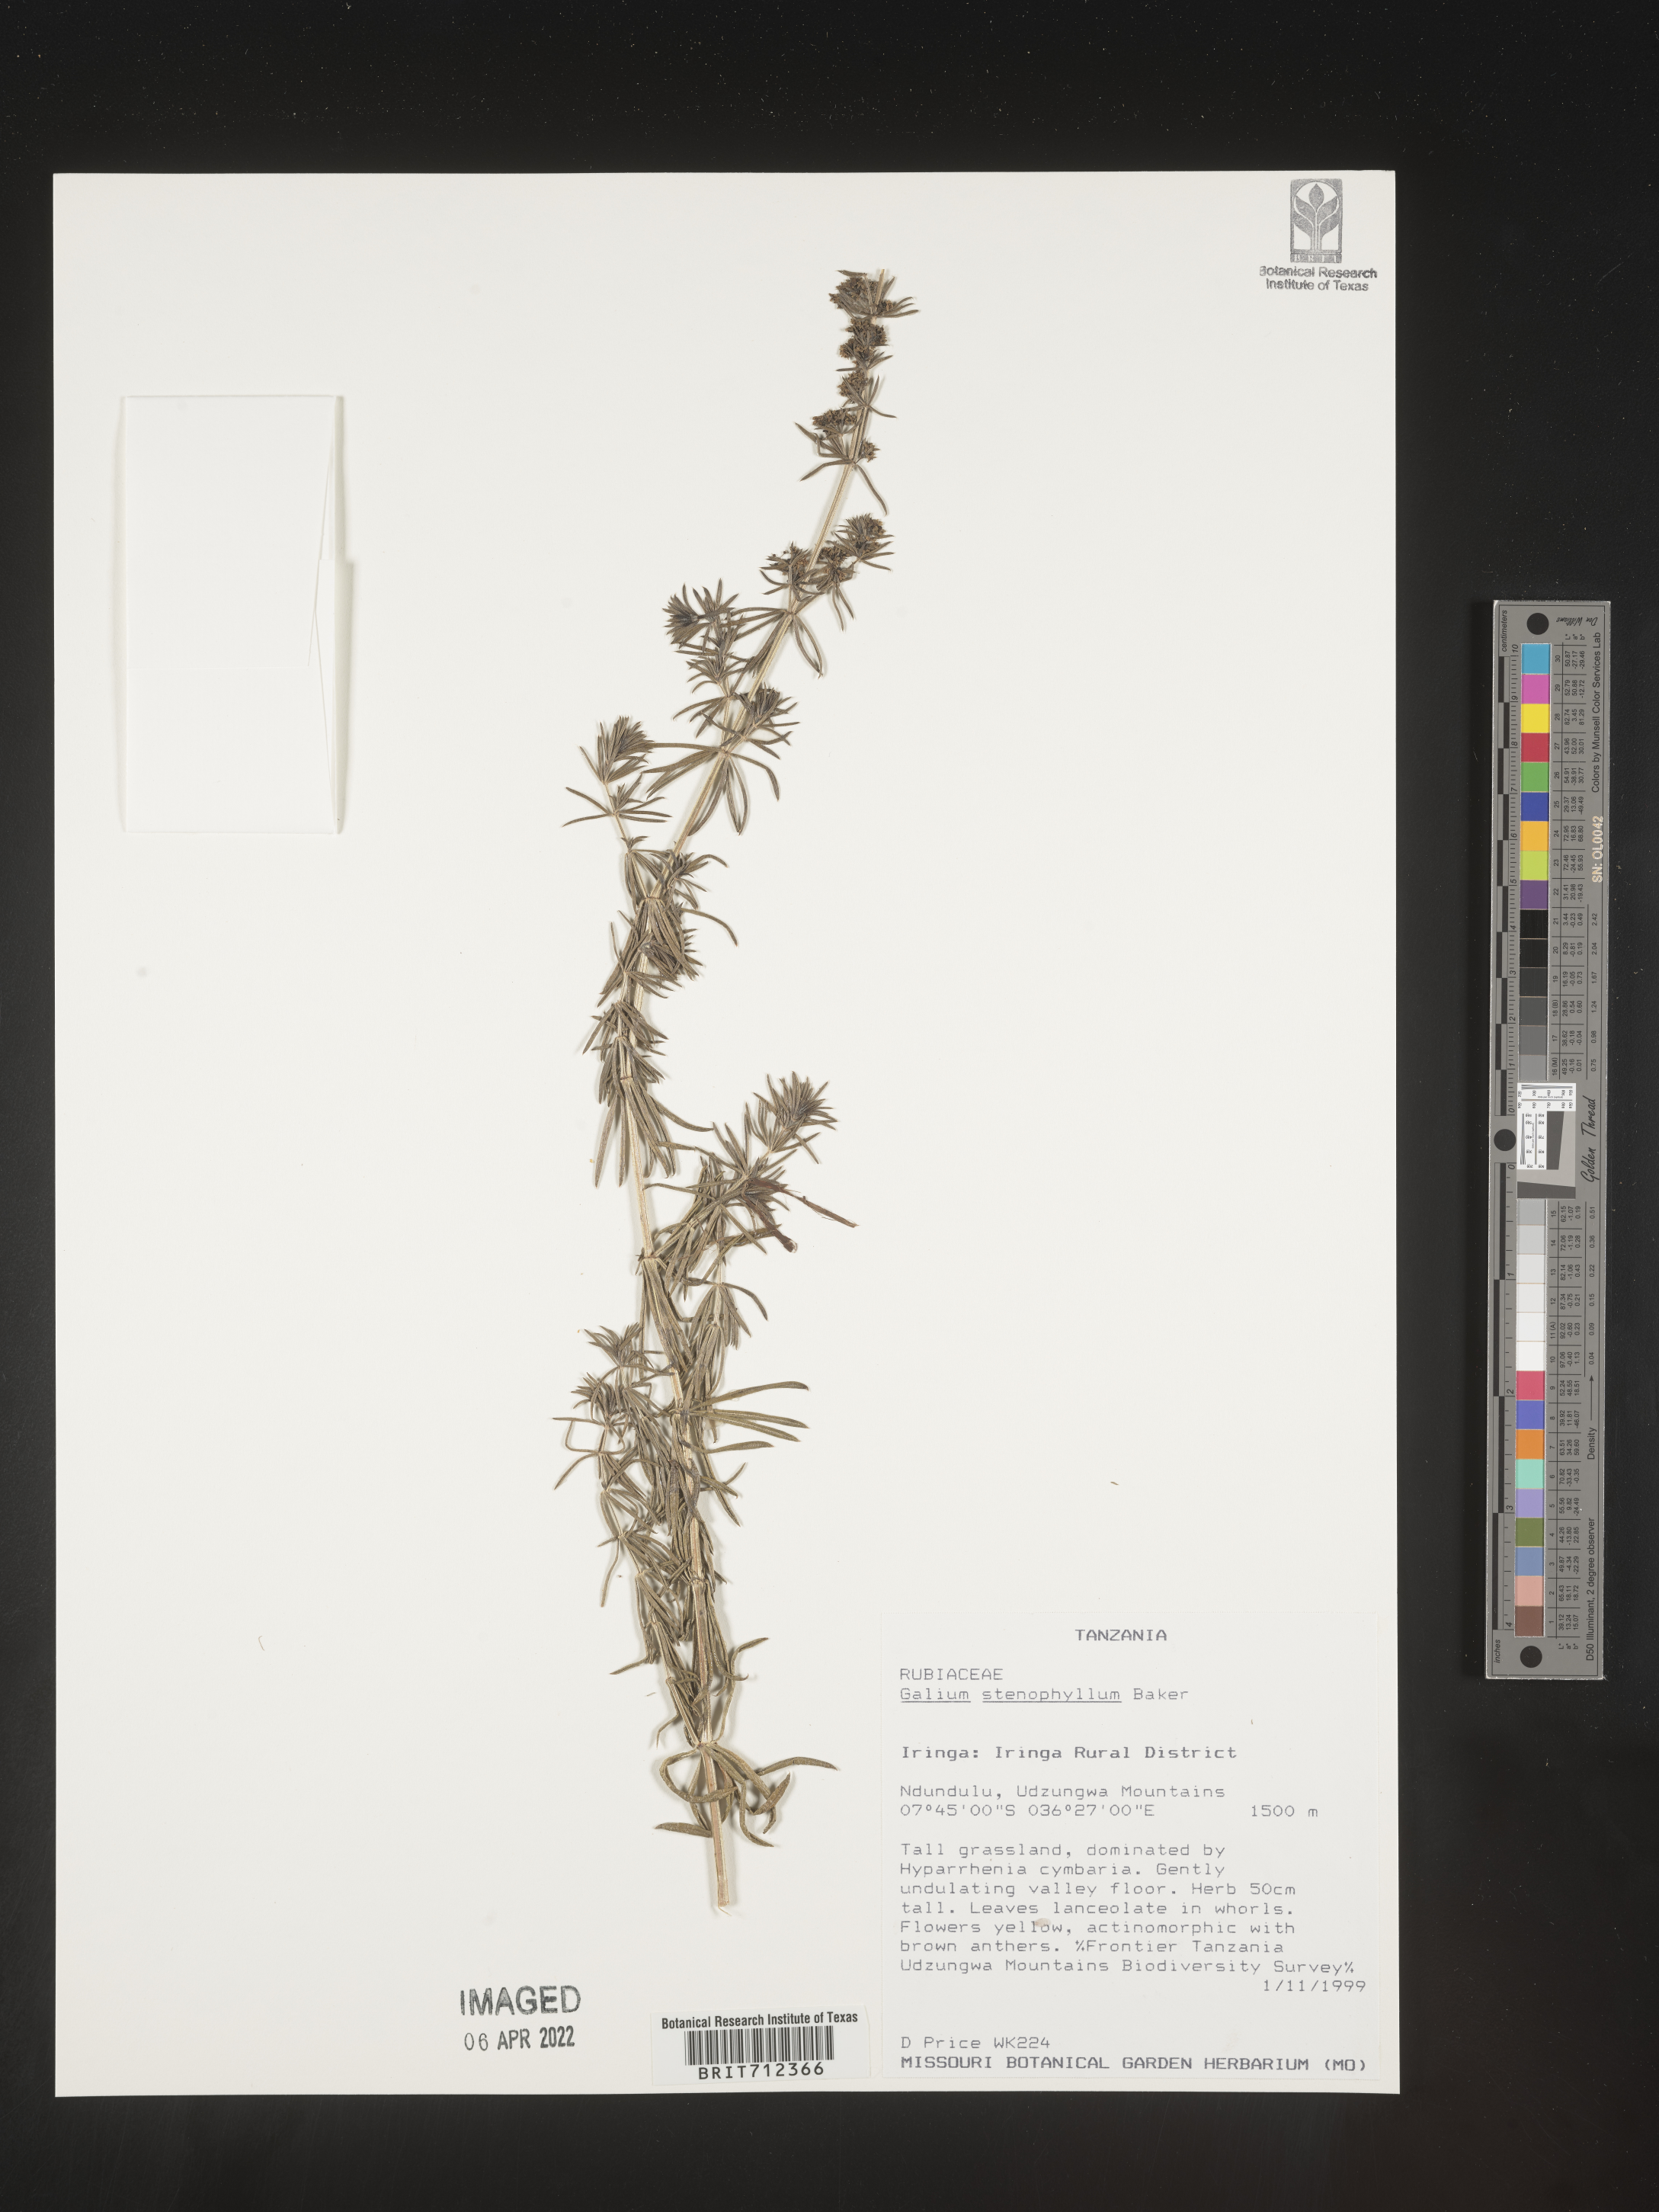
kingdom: Plantae
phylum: Tracheophyta
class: Magnoliopsida
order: Gentianales
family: Rubiaceae
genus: Galium
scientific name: Galium
